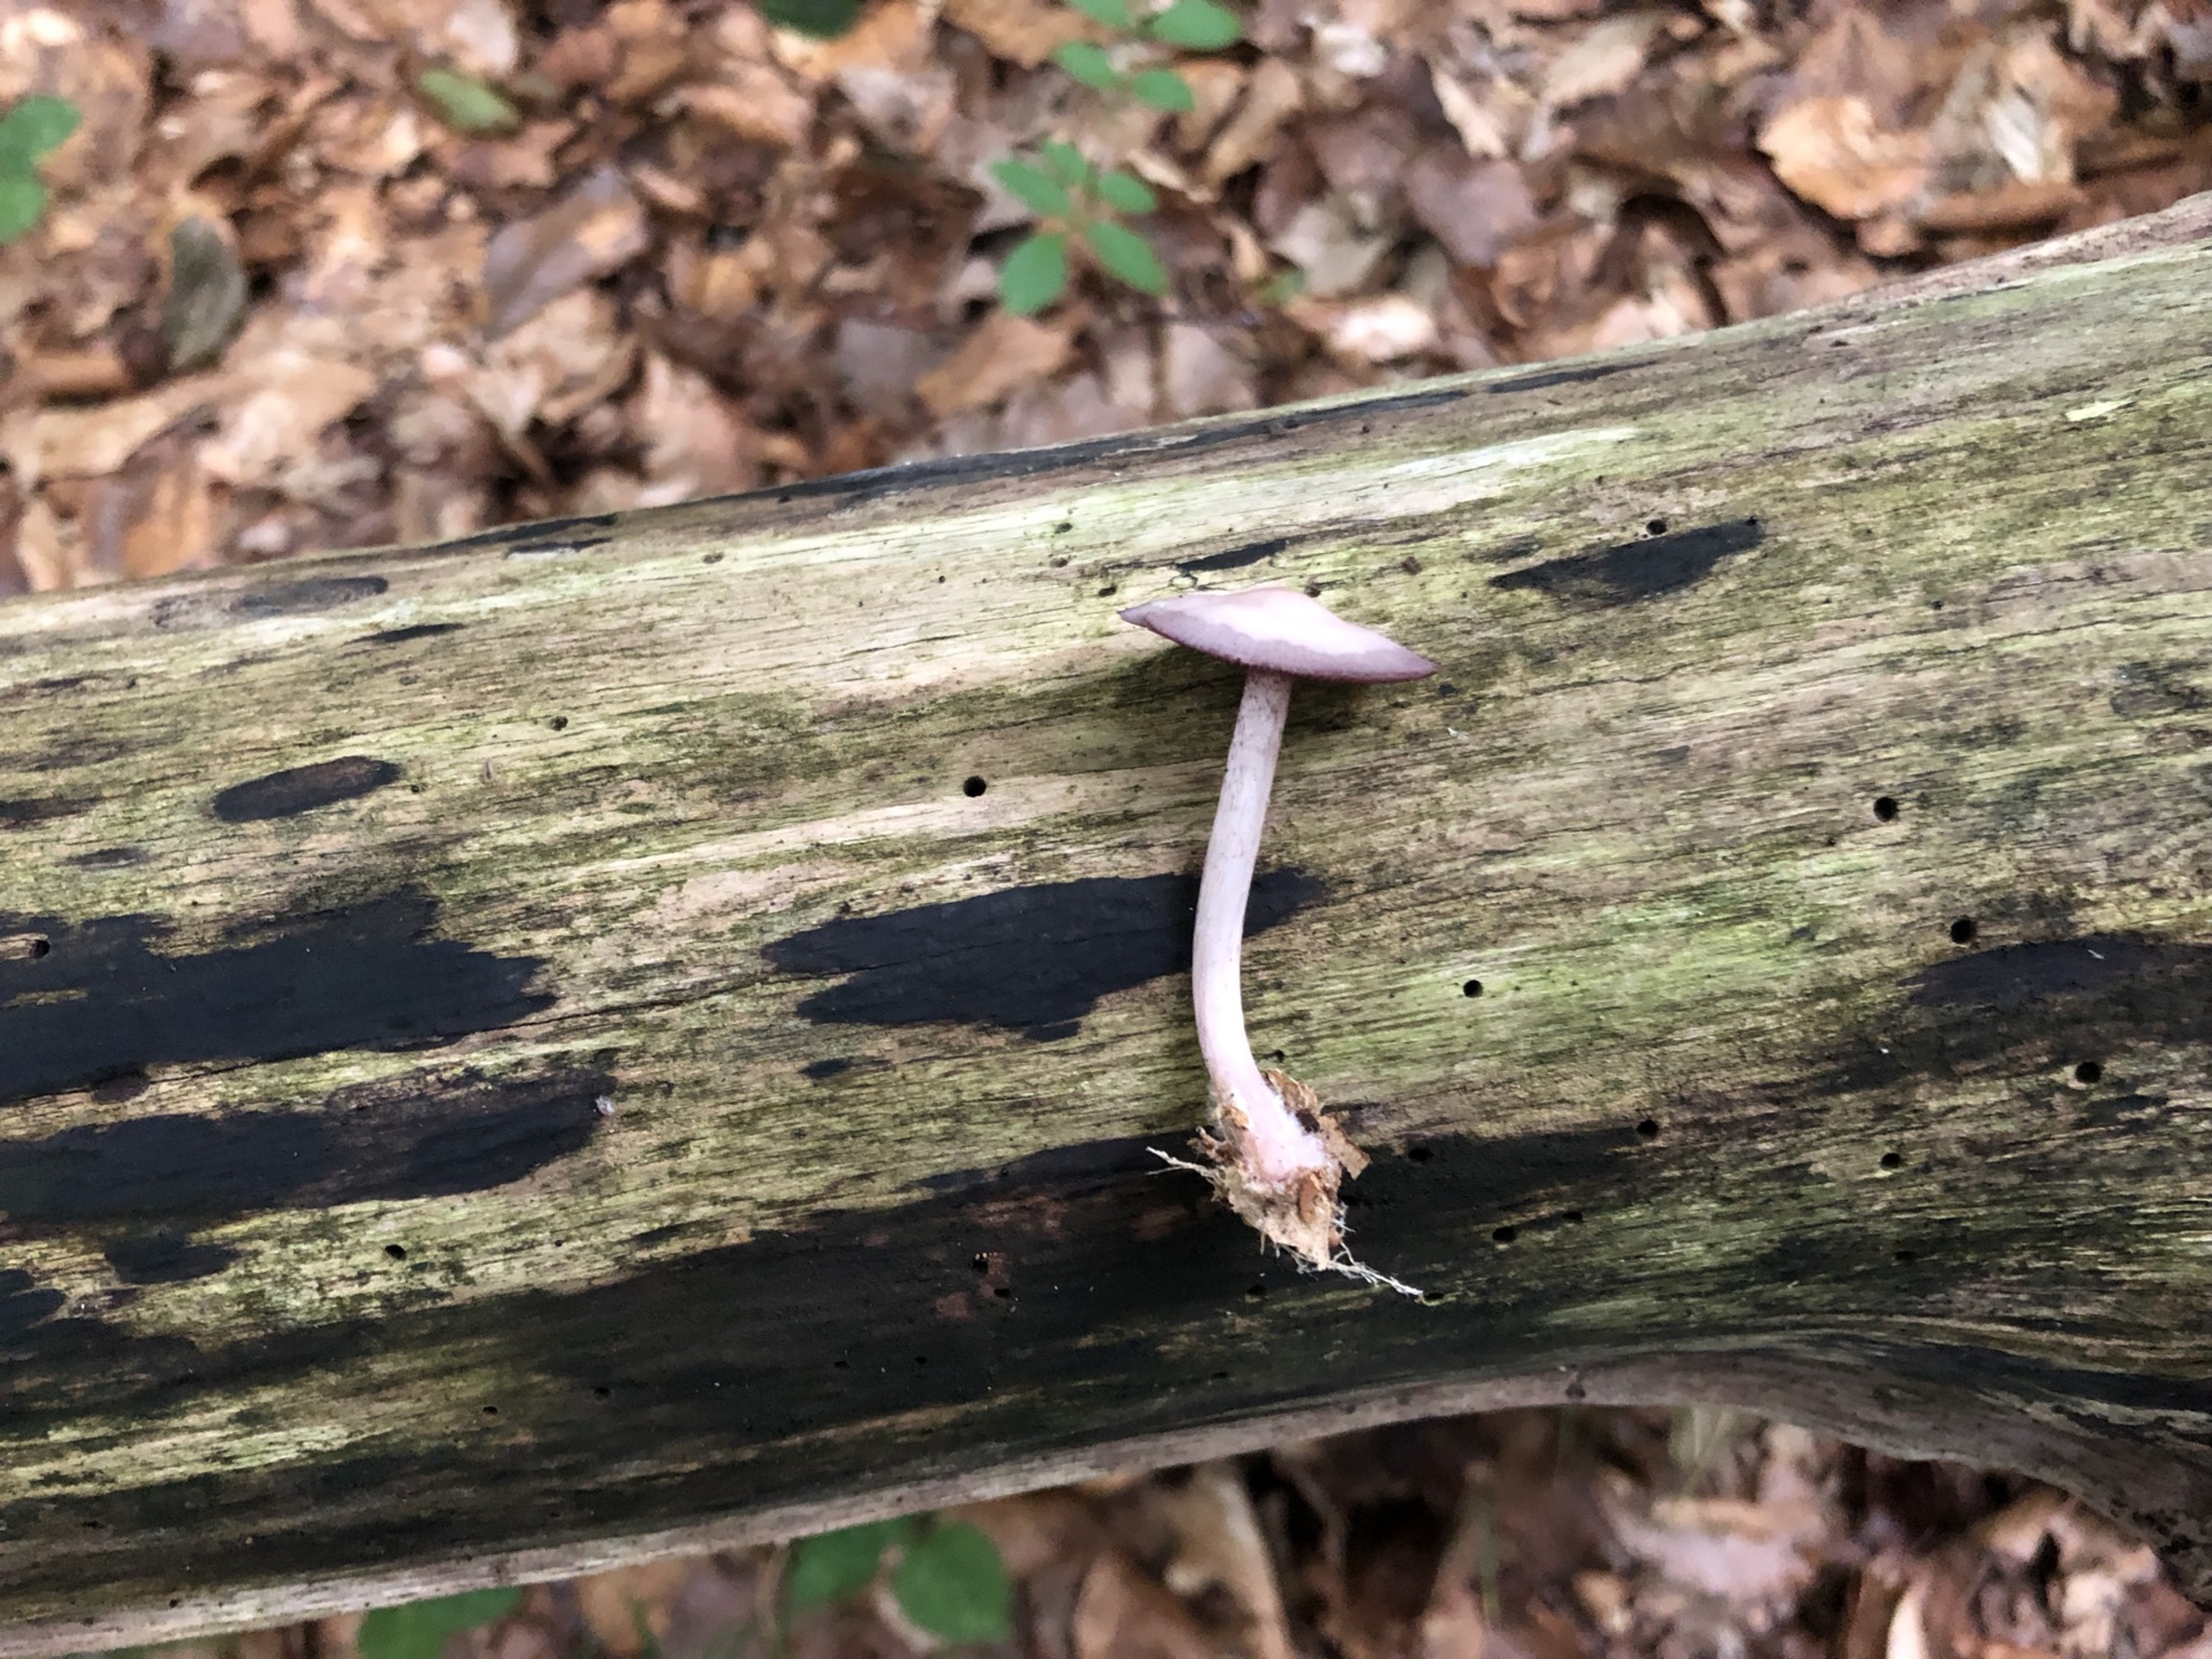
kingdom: Fungi
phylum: Basidiomycota
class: Agaricomycetes
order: Agaricales
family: Mycenaceae
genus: Mycena
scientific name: Mycena pelianthina
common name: Mørkbladet huesvamp
